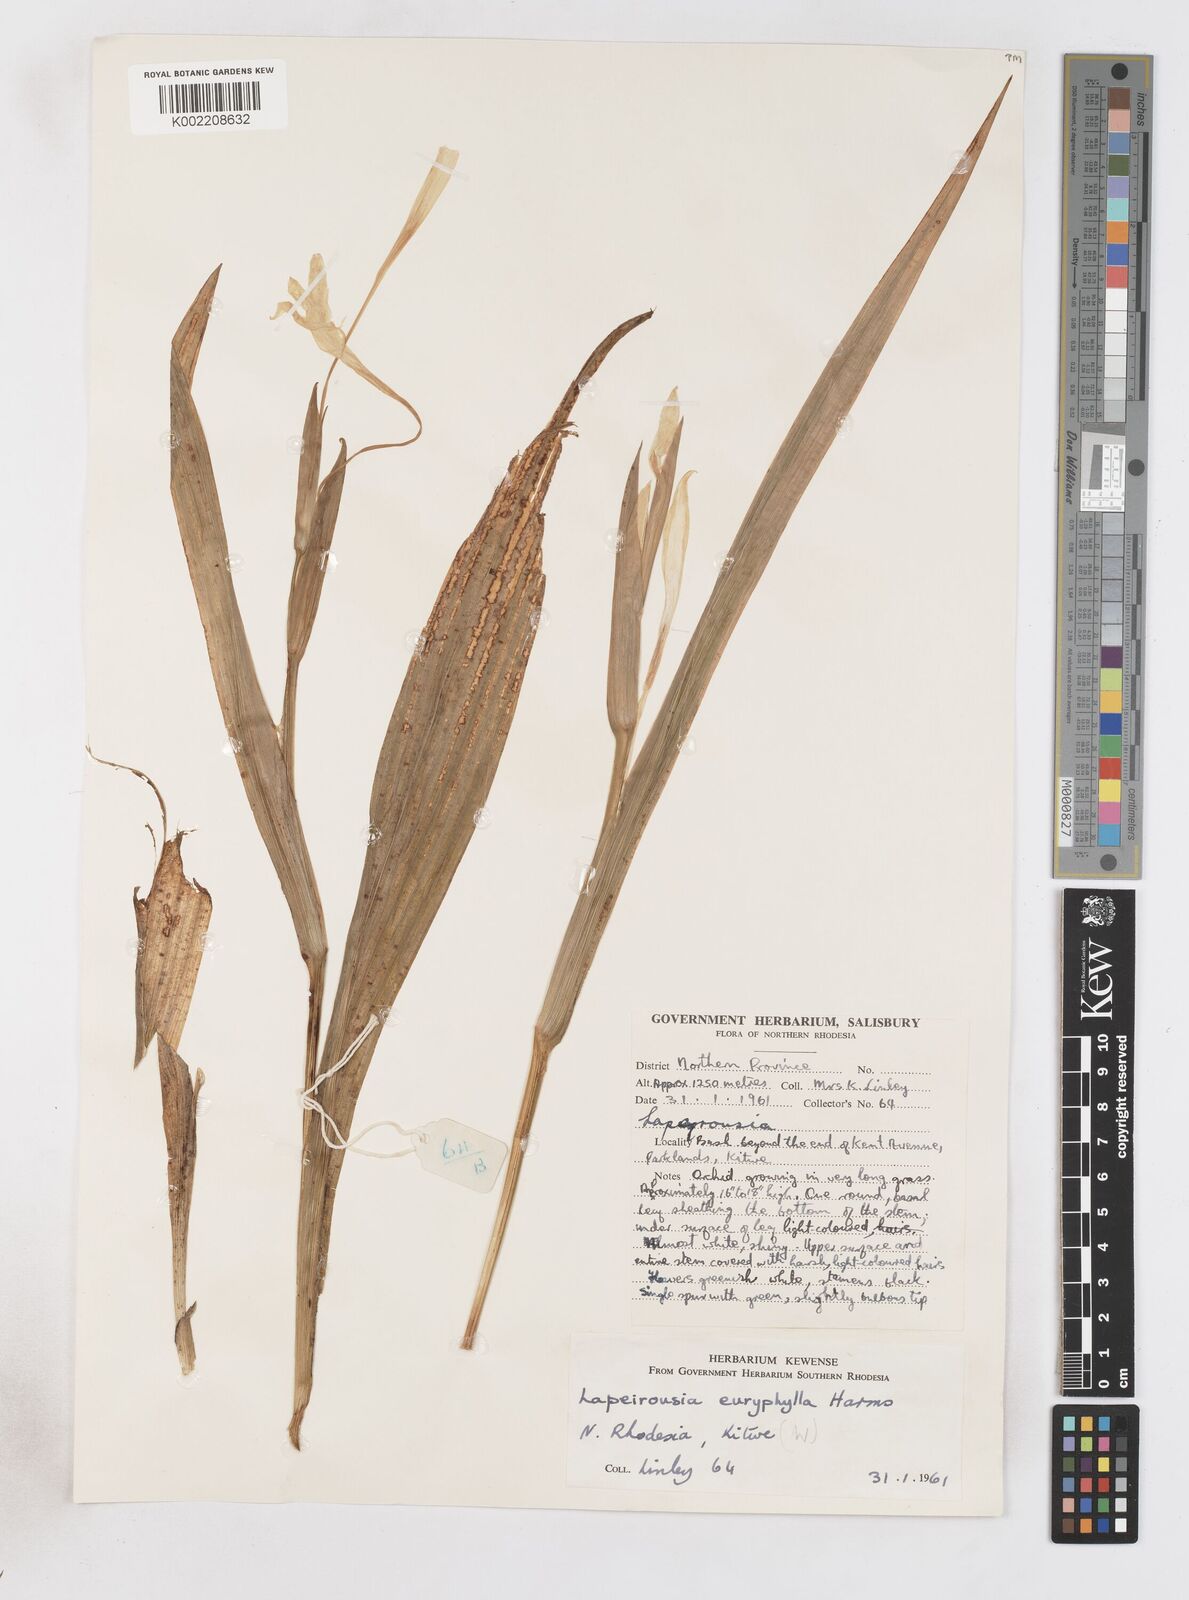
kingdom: Plantae
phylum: Tracheophyta
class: Liliopsida
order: Asparagales
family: Iridaceae
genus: Savannosiphon
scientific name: Savannosiphon euryphylla
